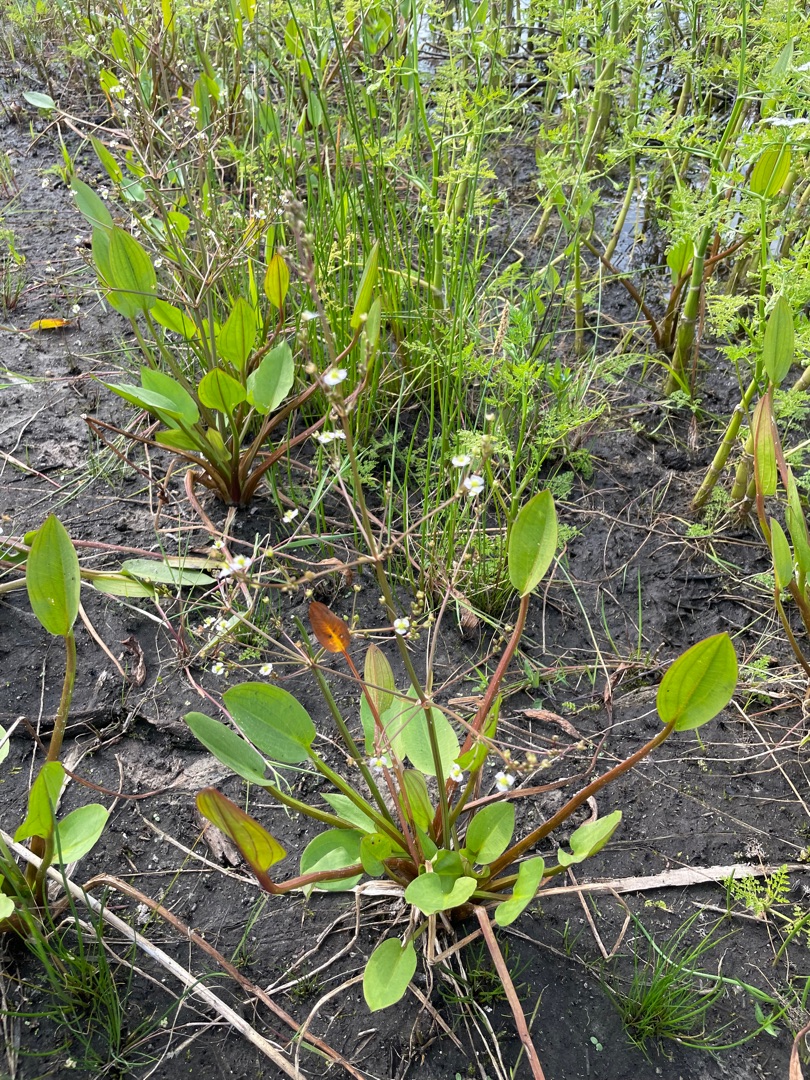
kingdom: Plantae
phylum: Tracheophyta
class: Liliopsida
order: Alismatales
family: Alismataceae
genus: Alisma
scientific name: Alisma plantago-aquatica
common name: Vejbred-skeblad
